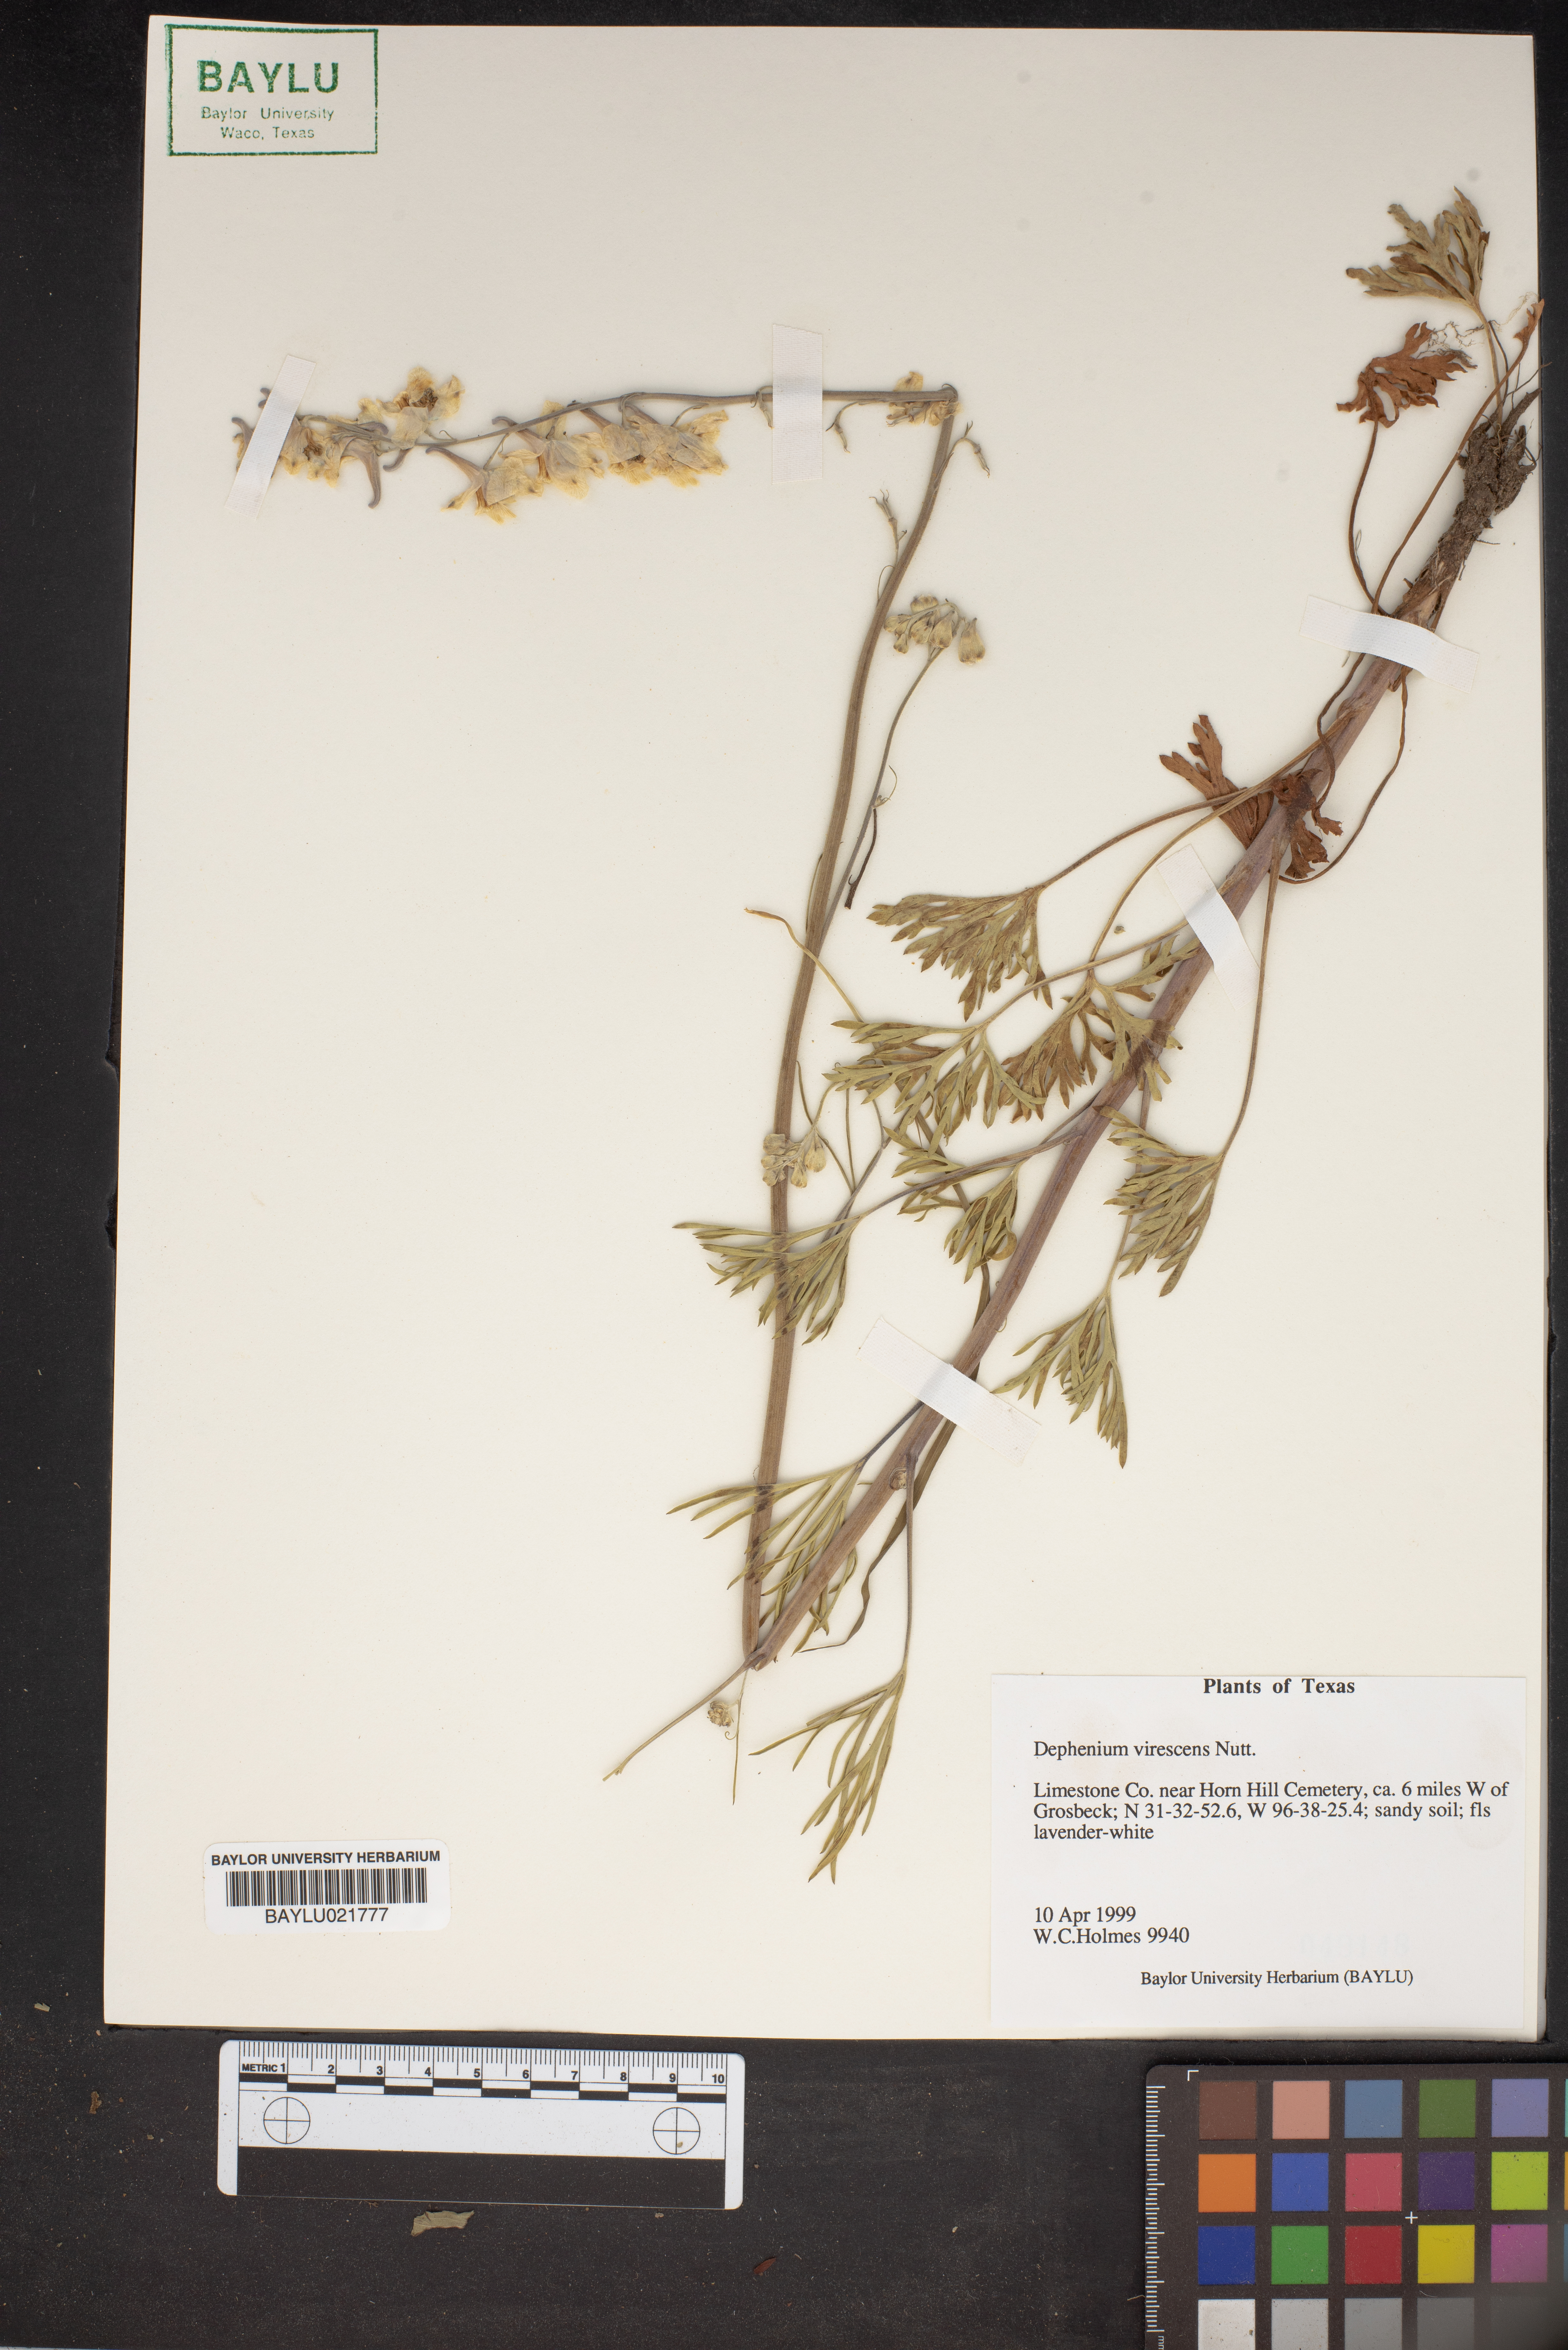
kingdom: Plantae
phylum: Tracheophyta
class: Magnoliopsida
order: Ranunculales
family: Ranunculaceae
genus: Delphinium
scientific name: Delphinium carolinianum
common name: Carolina larkspur
